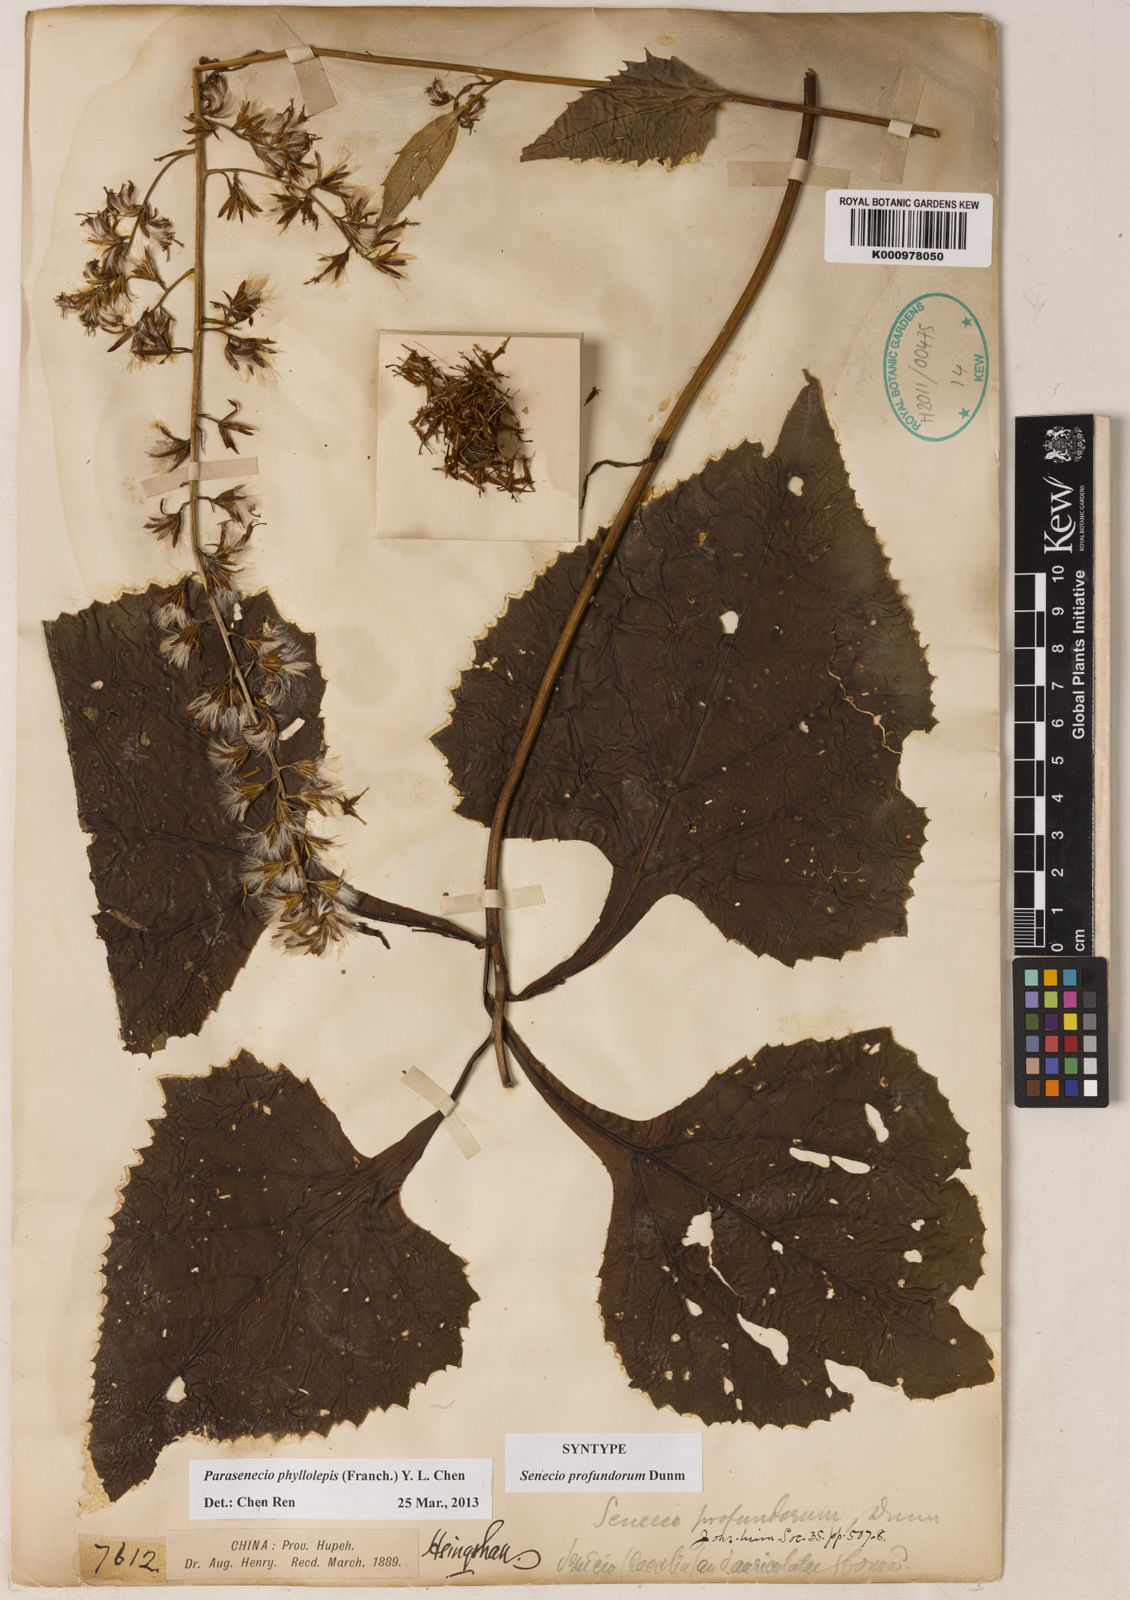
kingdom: Plantae
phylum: Tracheophyta
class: Magnoliopsida
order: Asterales
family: Asteraceae
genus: Parasenecio
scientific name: Parasenecio phyllolepis
